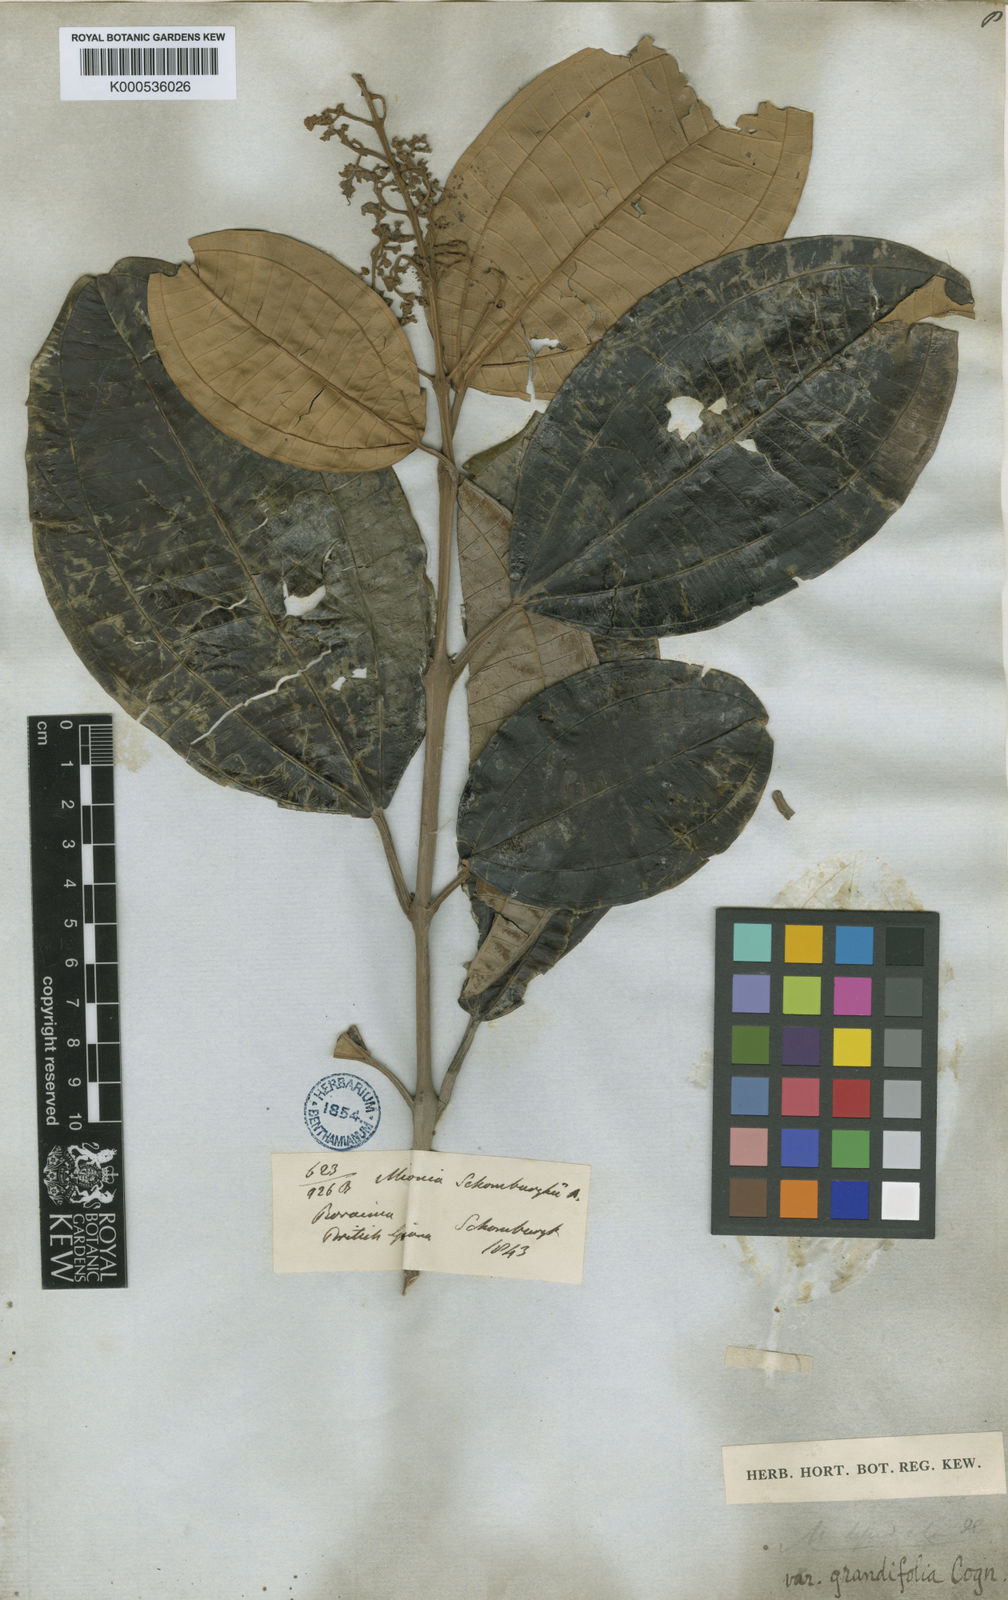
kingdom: Plantae
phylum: Tracheophyta
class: Magnoliopsida
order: Myrtales
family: Melastomataceae
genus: Miconia
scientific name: Miconia lepidota
